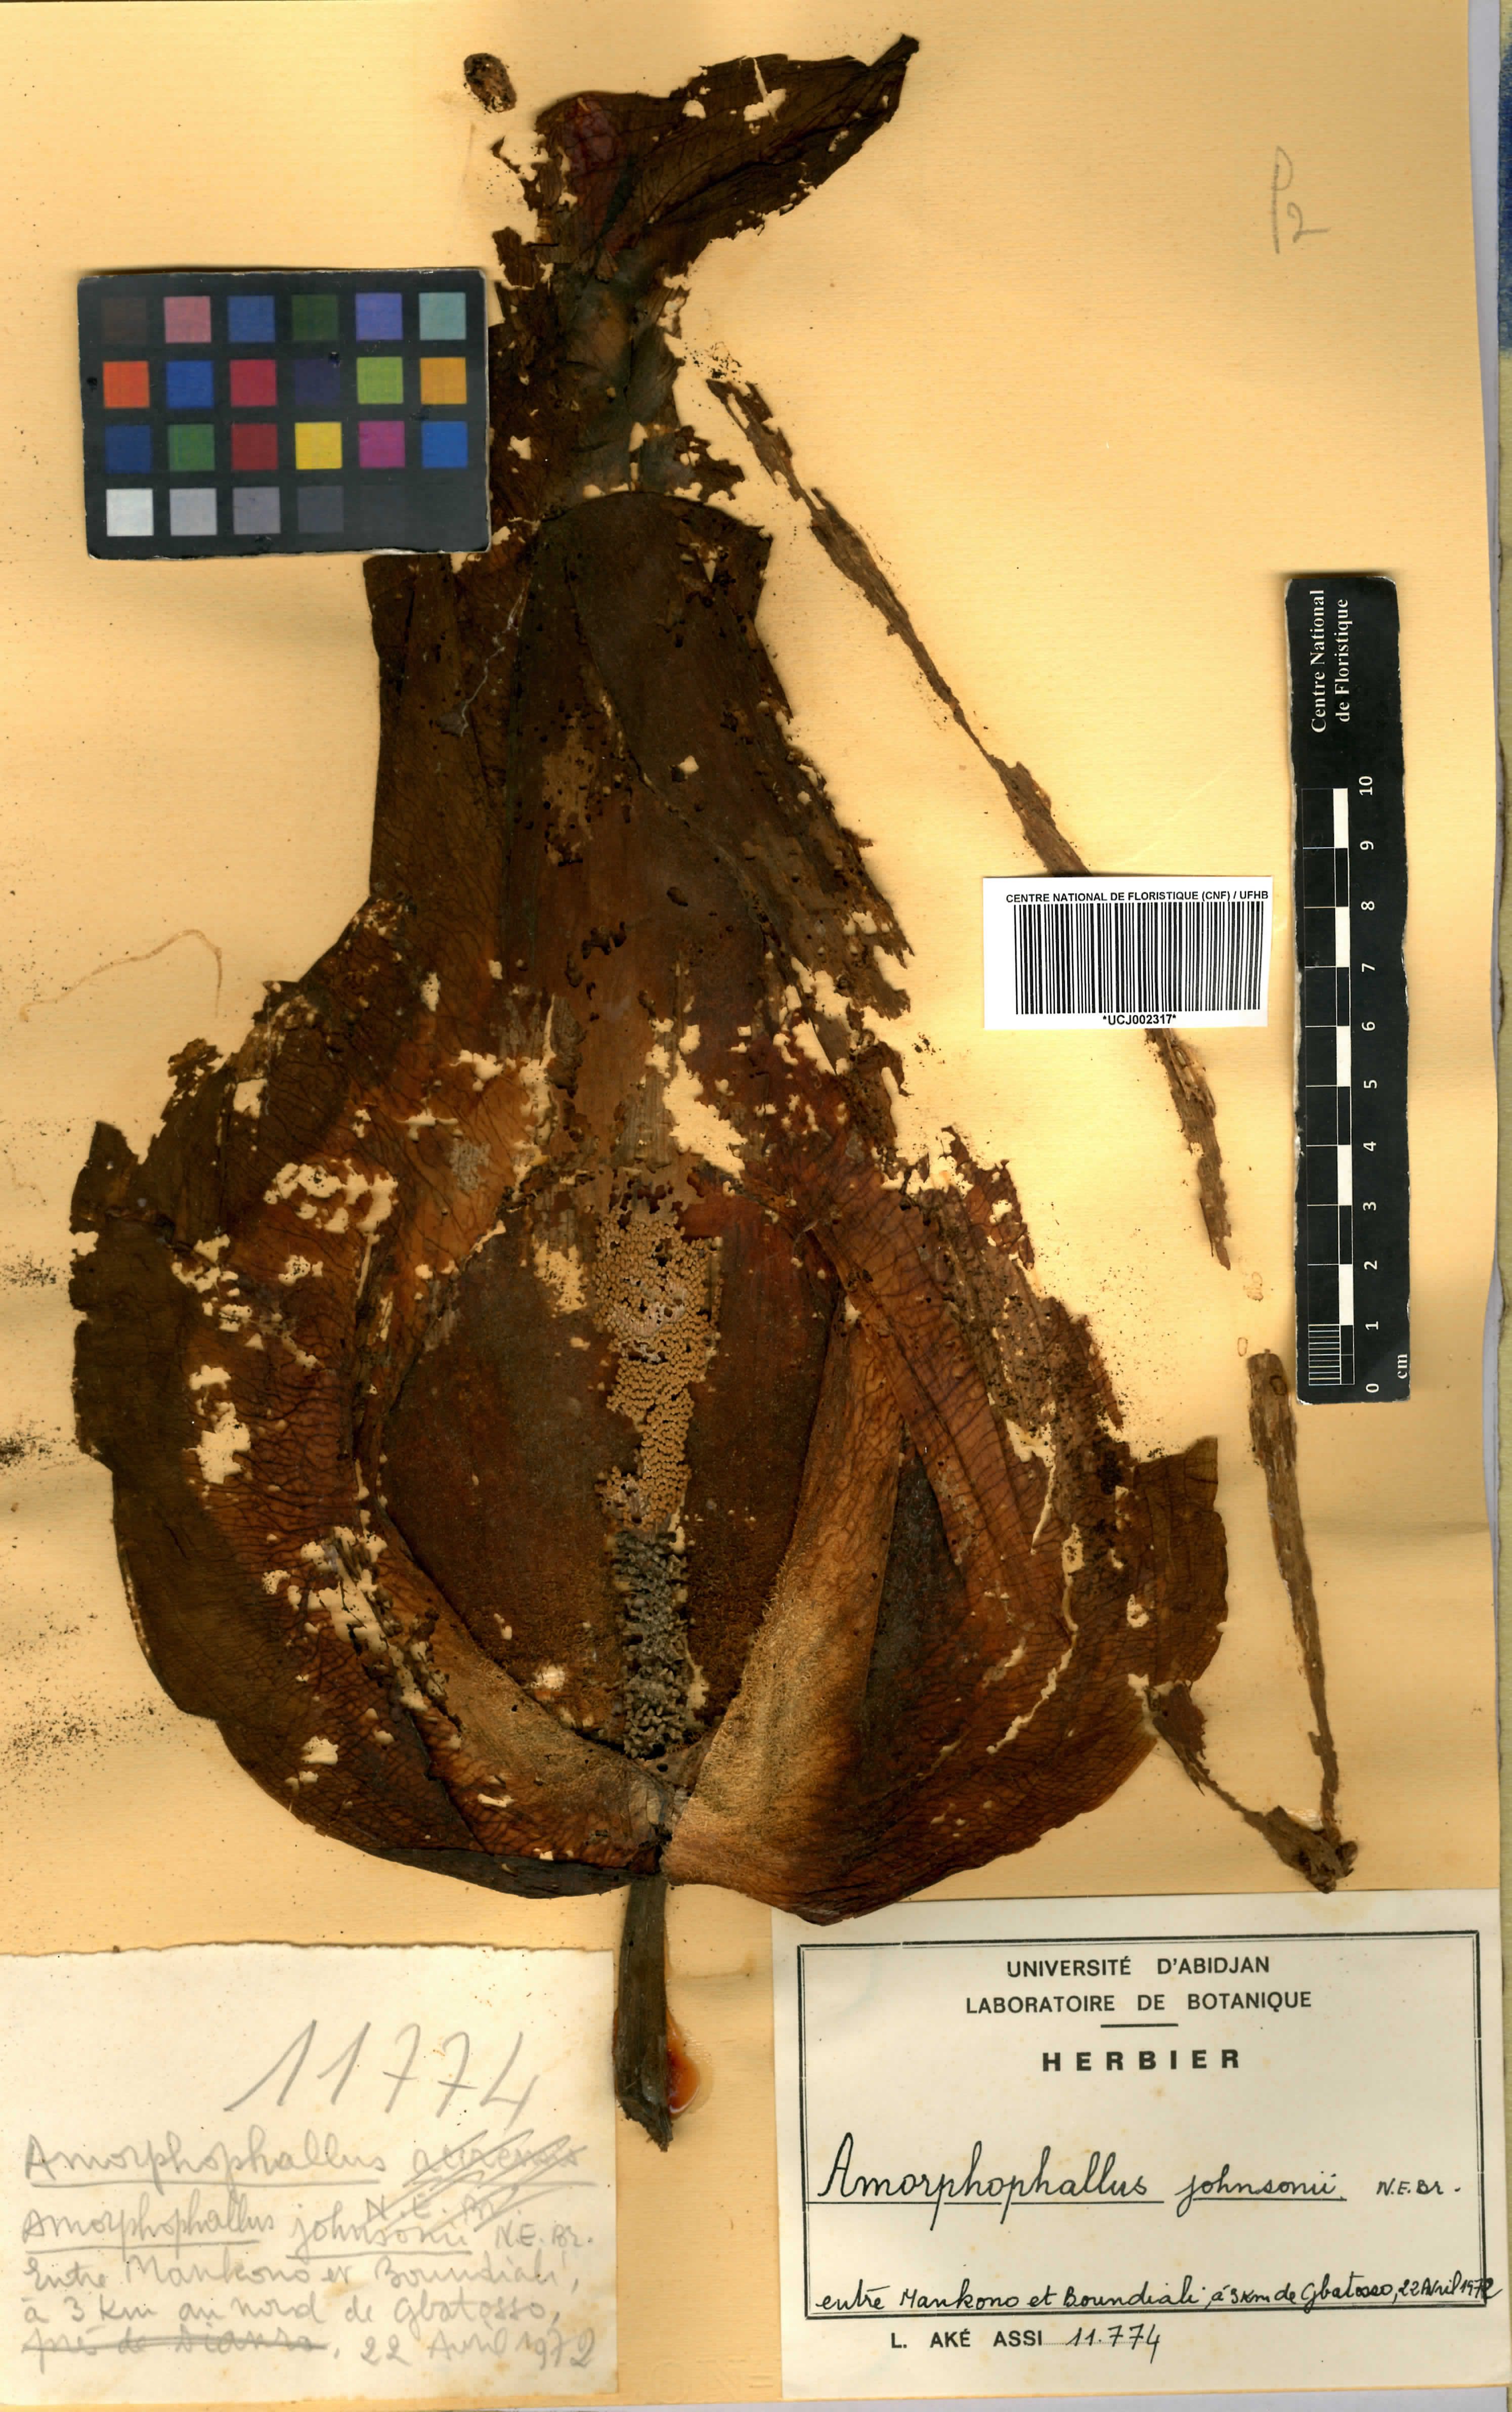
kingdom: Plantae
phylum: Tracheophyta
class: Liliopsida
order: Alismatales
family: Araceae
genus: Amorphophallus
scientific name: Amorphophallus johnsonii
